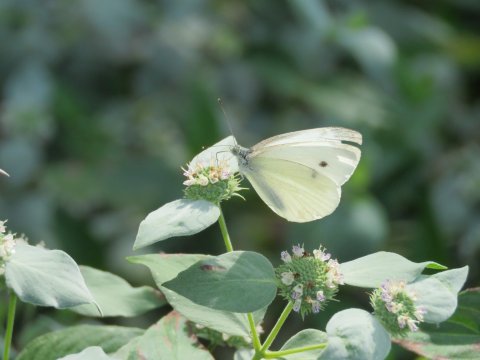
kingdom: Animalia
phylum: Arthropoda
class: Insecta
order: Lepidoptera
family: Pieridae
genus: Pieris
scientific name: Pieris rapae
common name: Cabbage White
